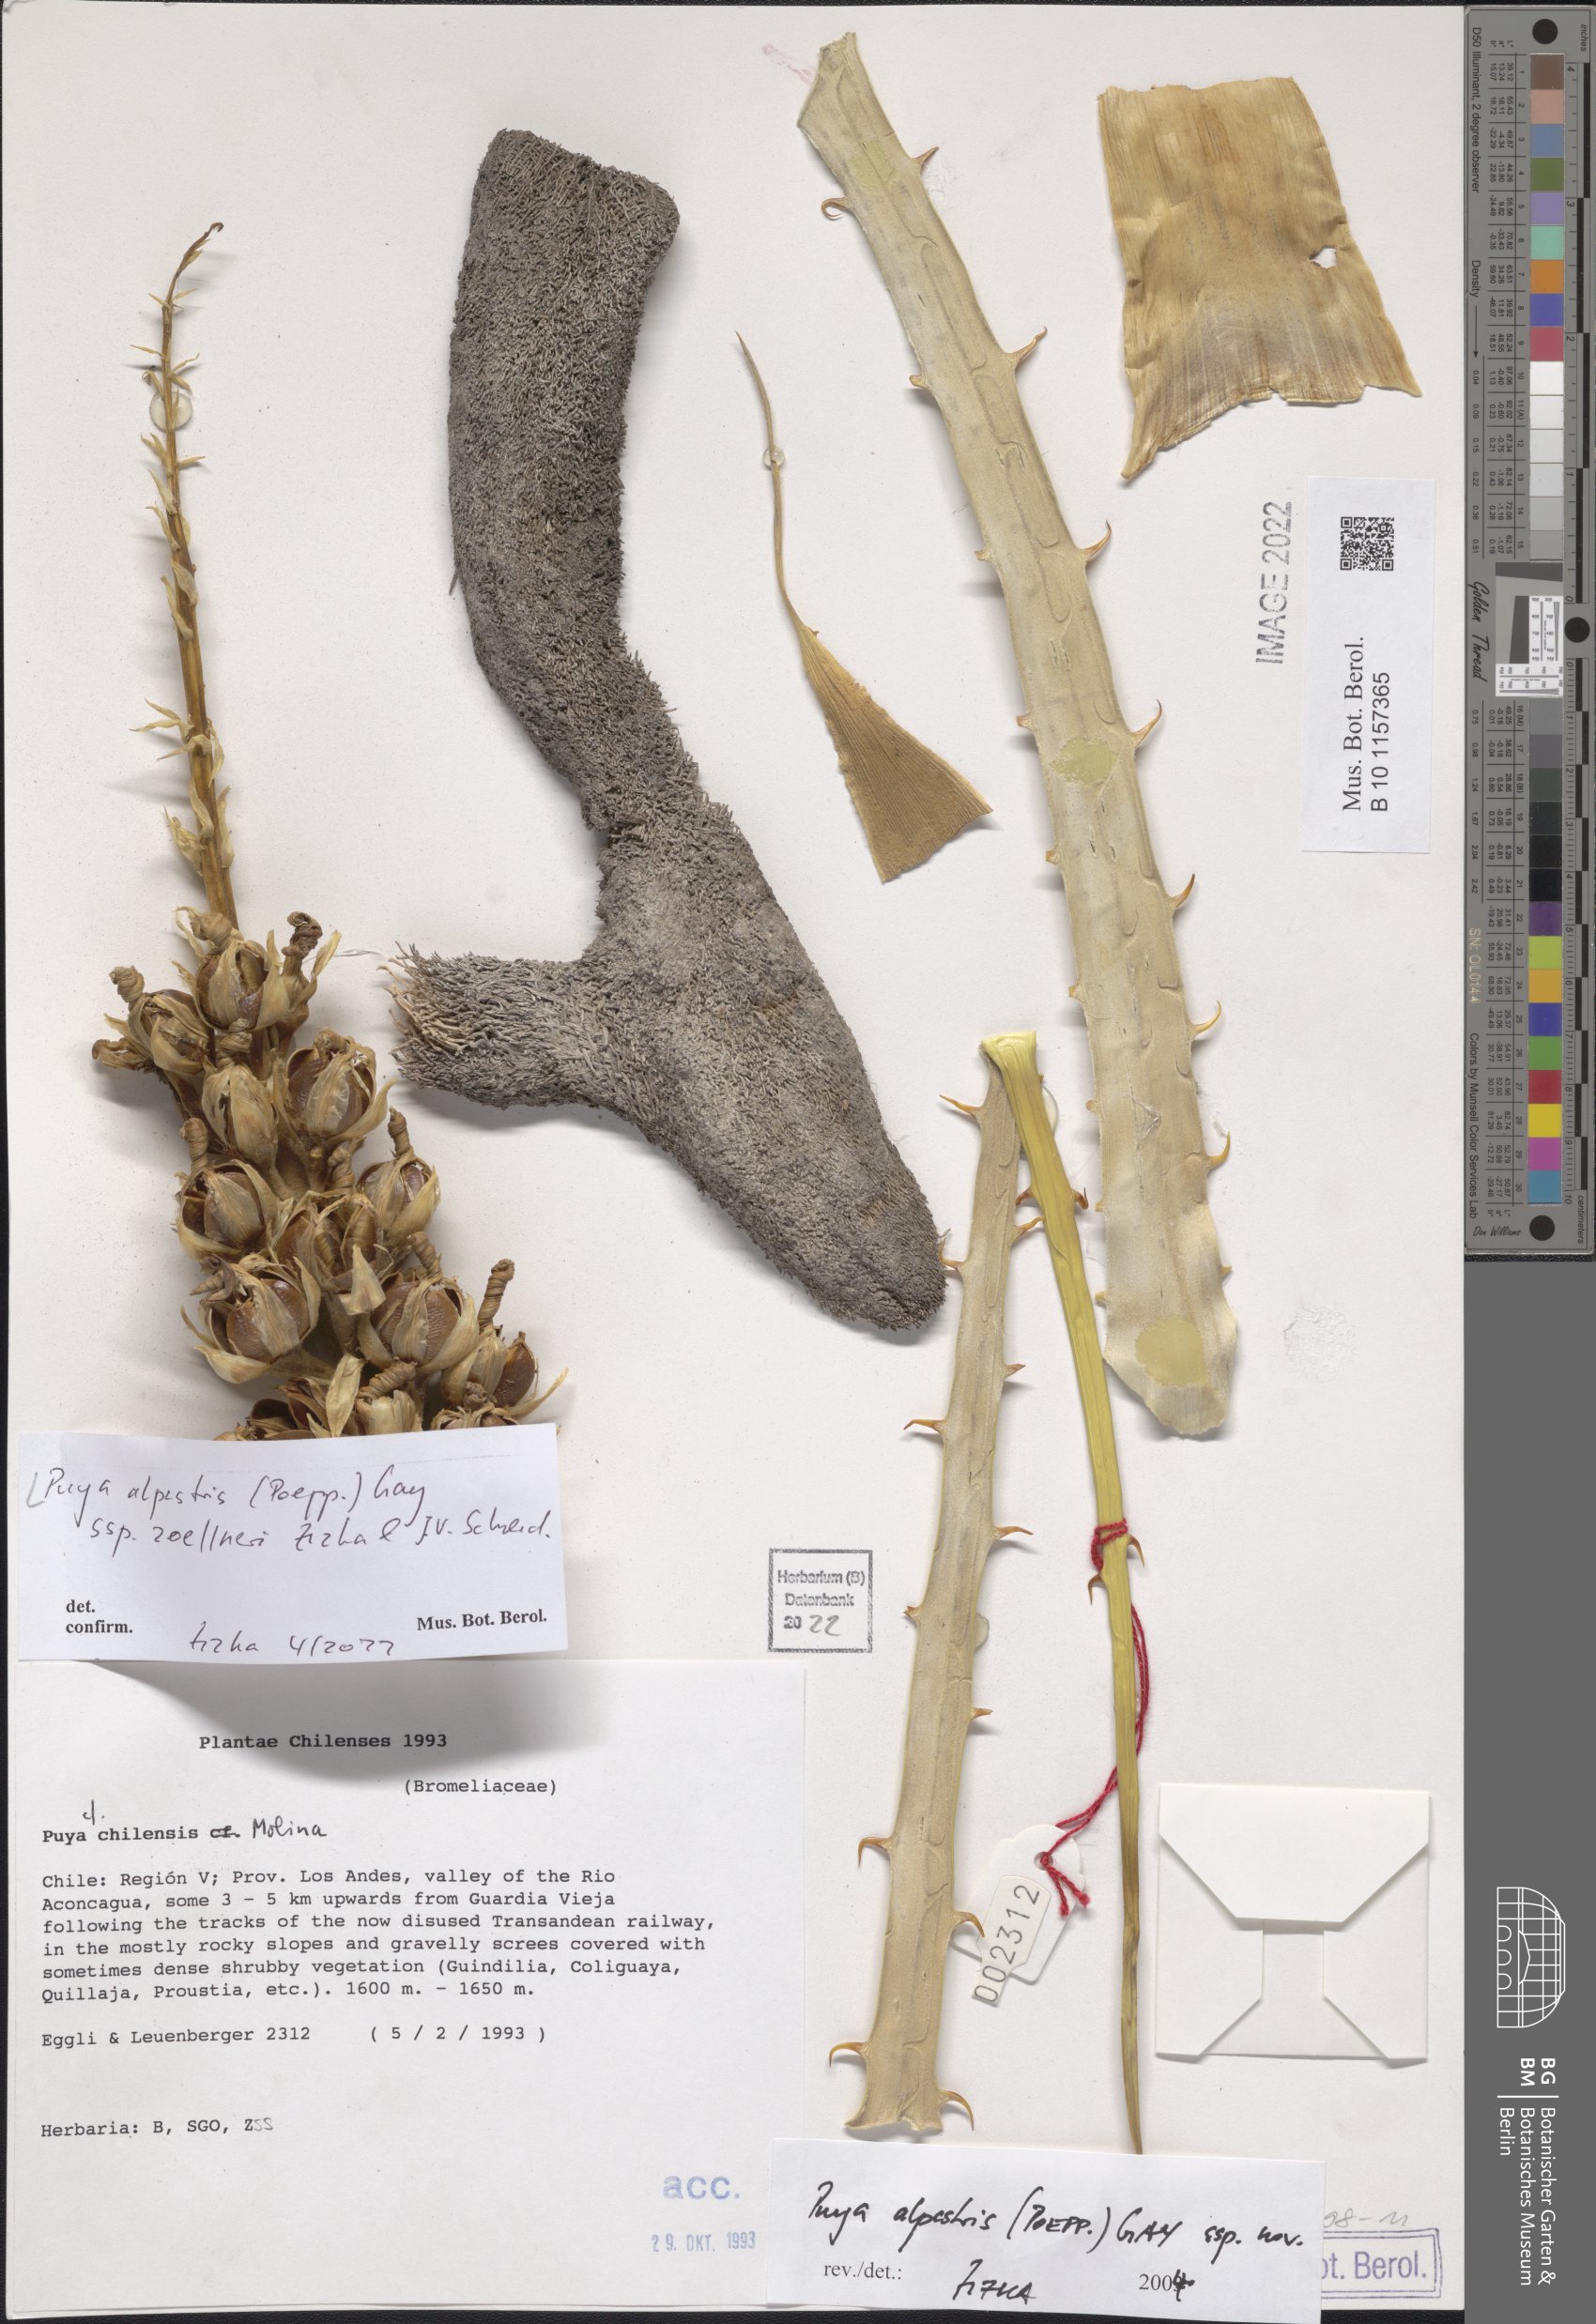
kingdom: Plantae
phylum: Tracheophyta
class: Liliopsida
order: Poales
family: Bromeliaceae
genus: Puya
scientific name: Puya alpestris
